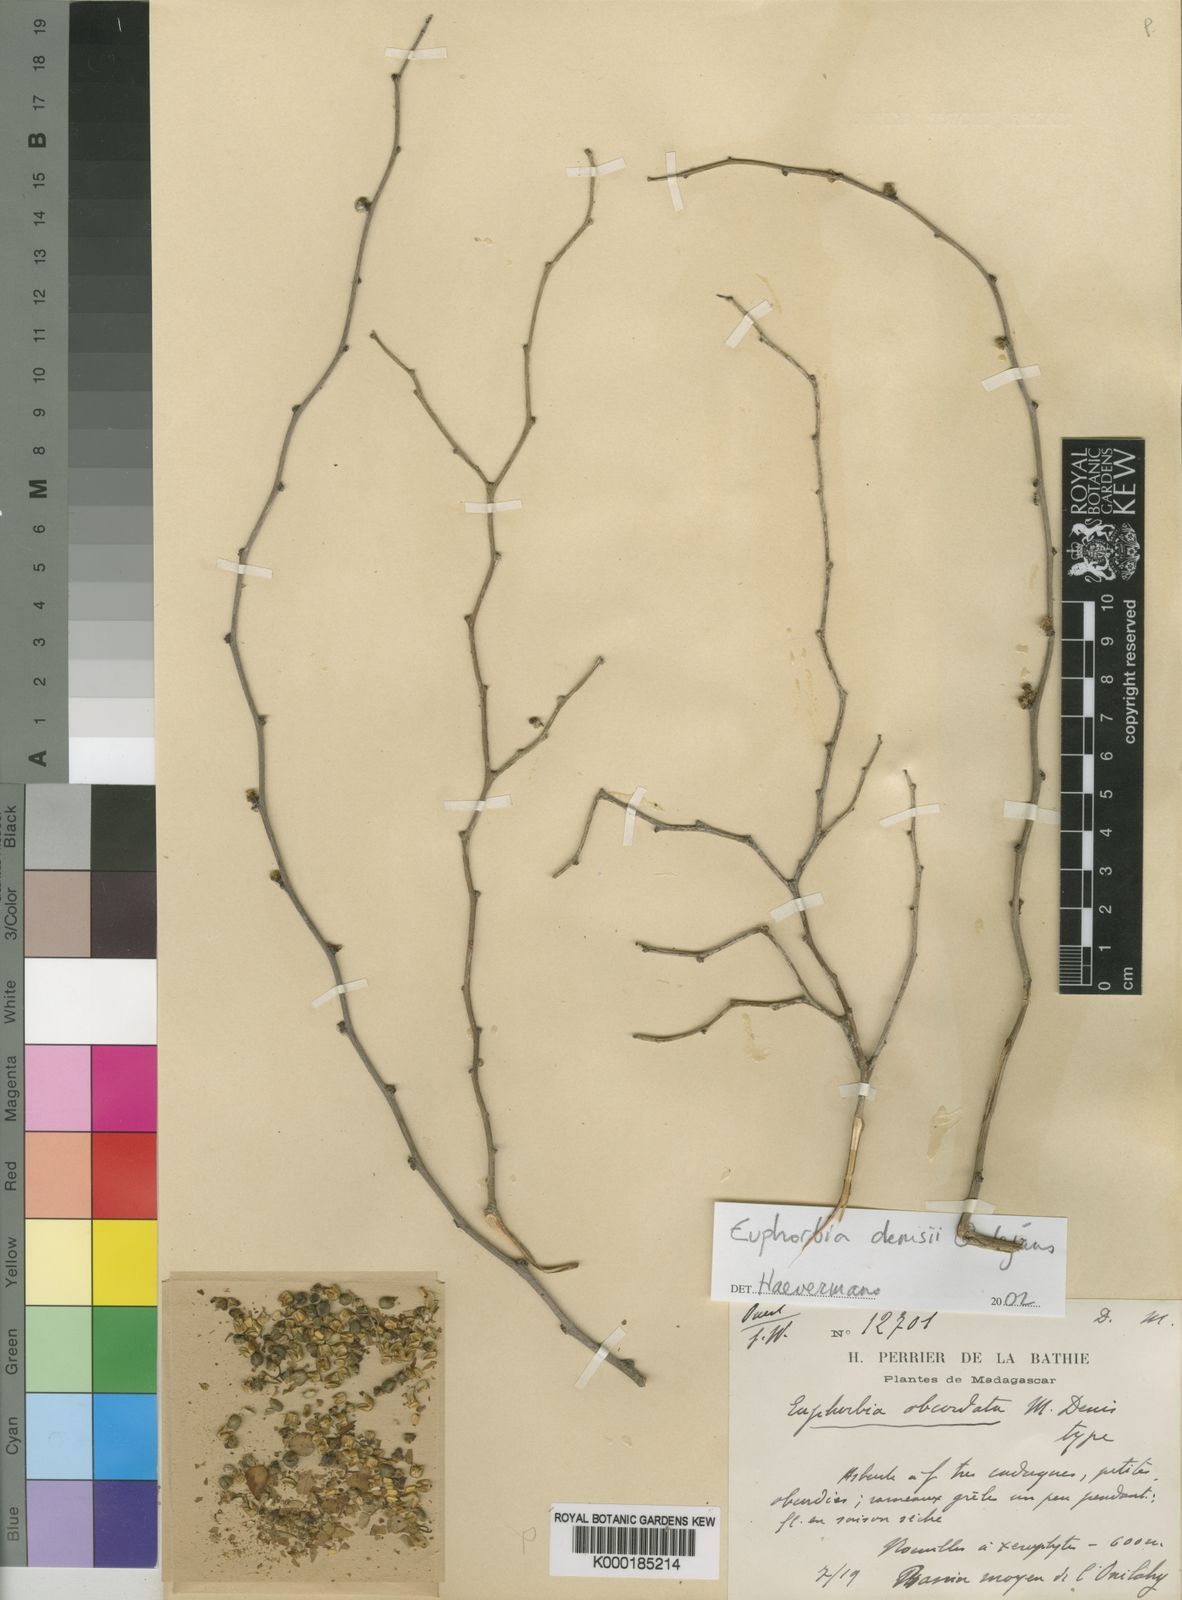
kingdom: Plantae
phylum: Tracheophyta
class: Magnoliopsida
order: Malpighiales
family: Euphorbiaceae
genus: Euphorbia
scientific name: Euphorbia denisii
